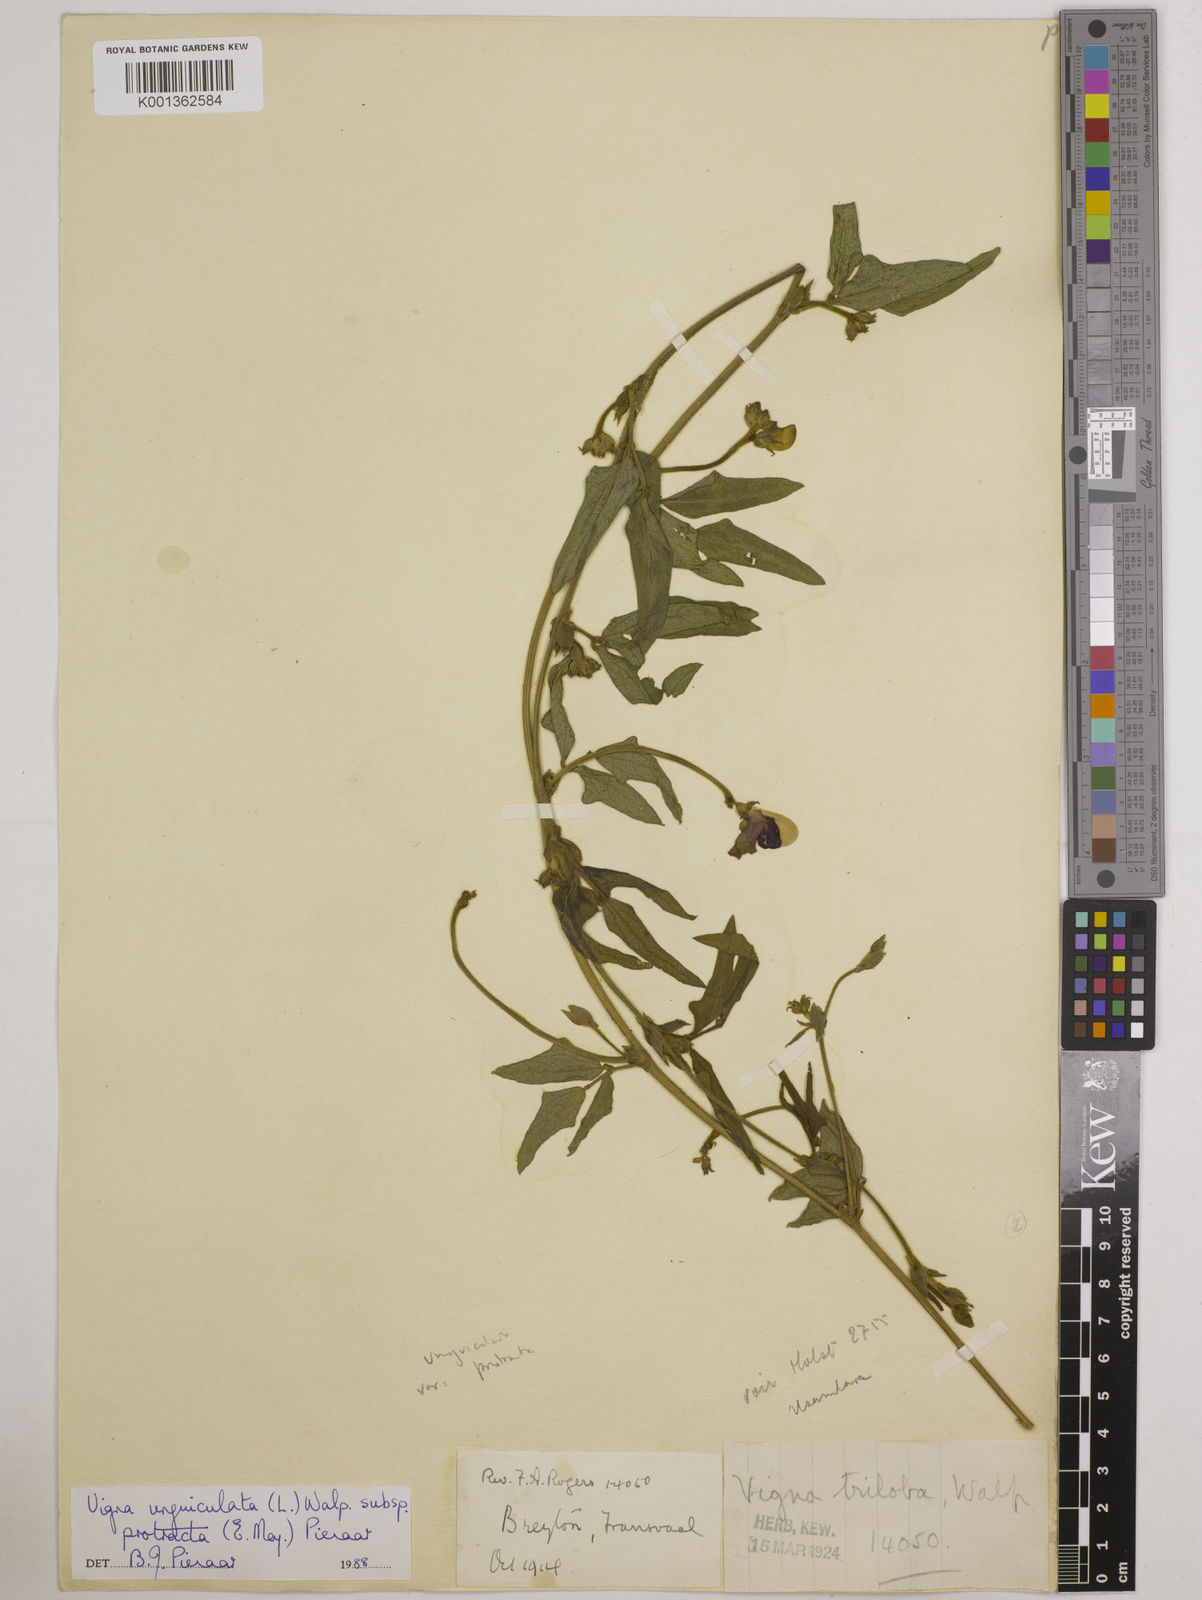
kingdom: Plantae
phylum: Tracheophyta
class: Magnoliopsida
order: Fabales
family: Fabaceae
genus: Vigna
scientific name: Vigna unguiculata
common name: Cowpea
